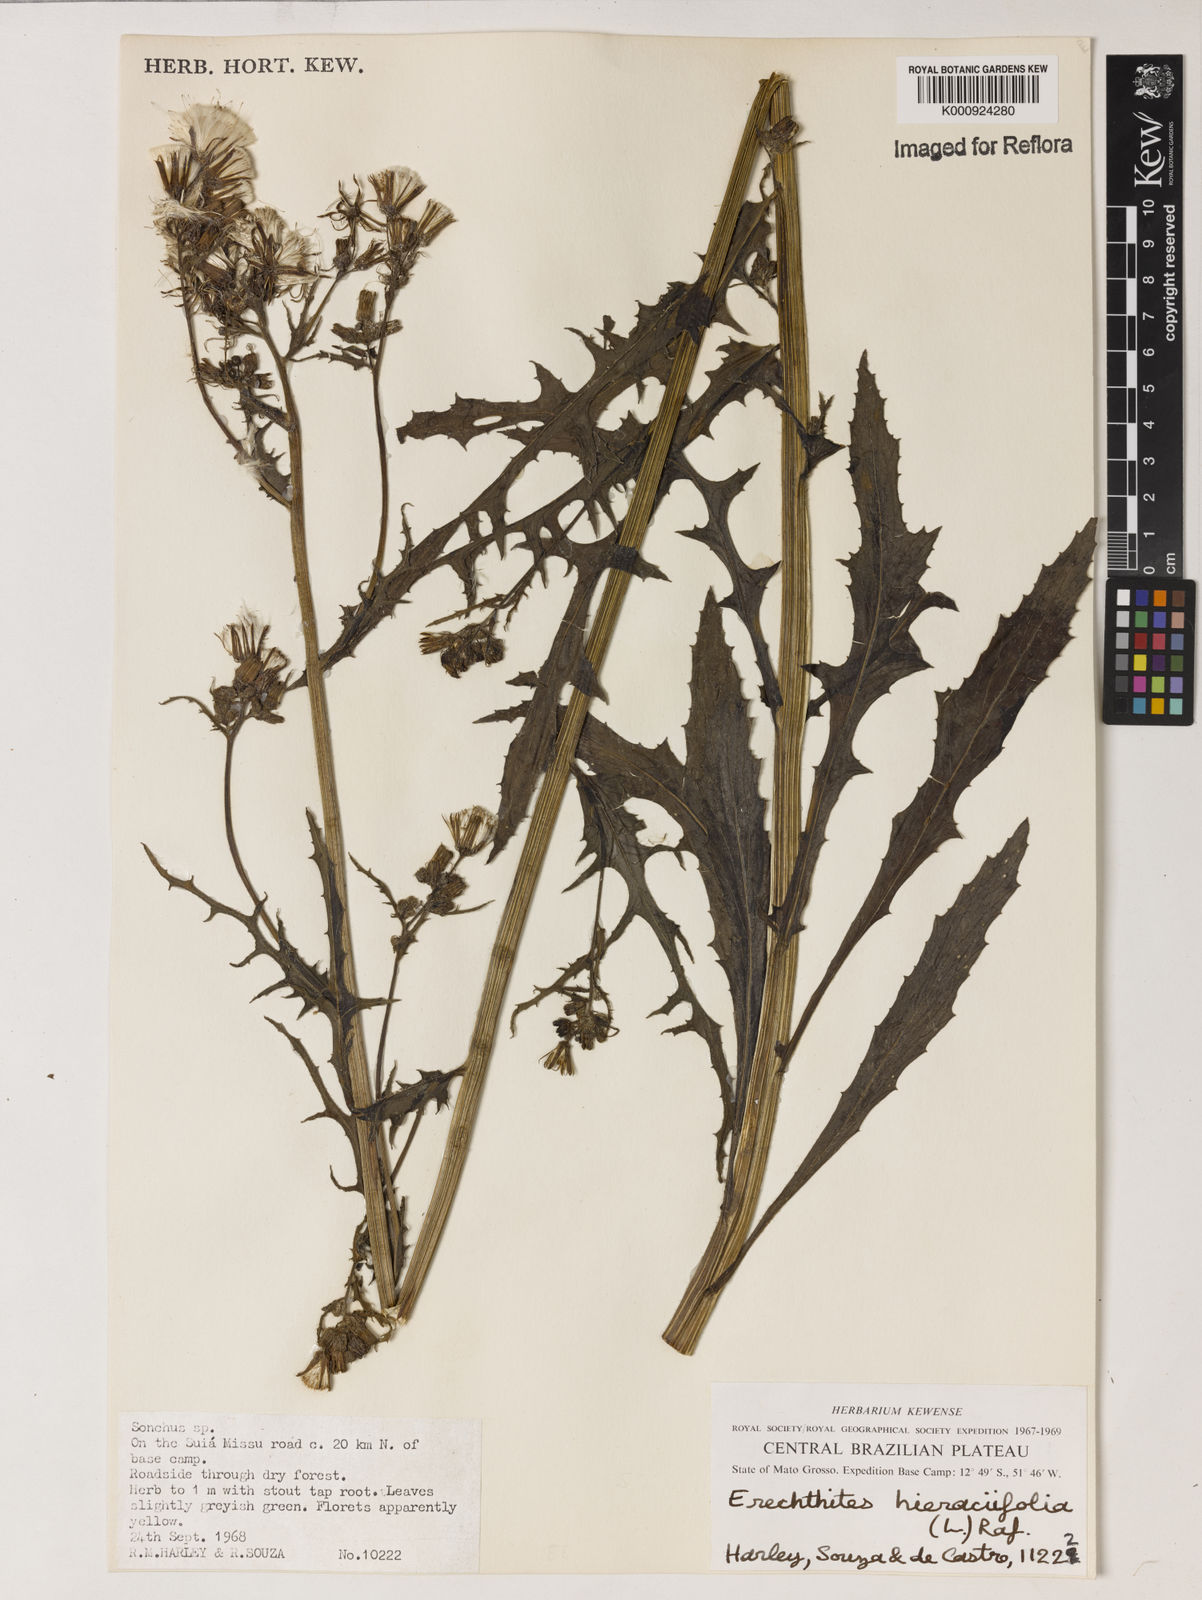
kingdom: Plantae
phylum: Tracheophyta
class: Magnoliopsida
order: Asterales
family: Asteraceae
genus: Erechtites
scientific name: Erechtites hieraciifolius
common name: American burnweed
